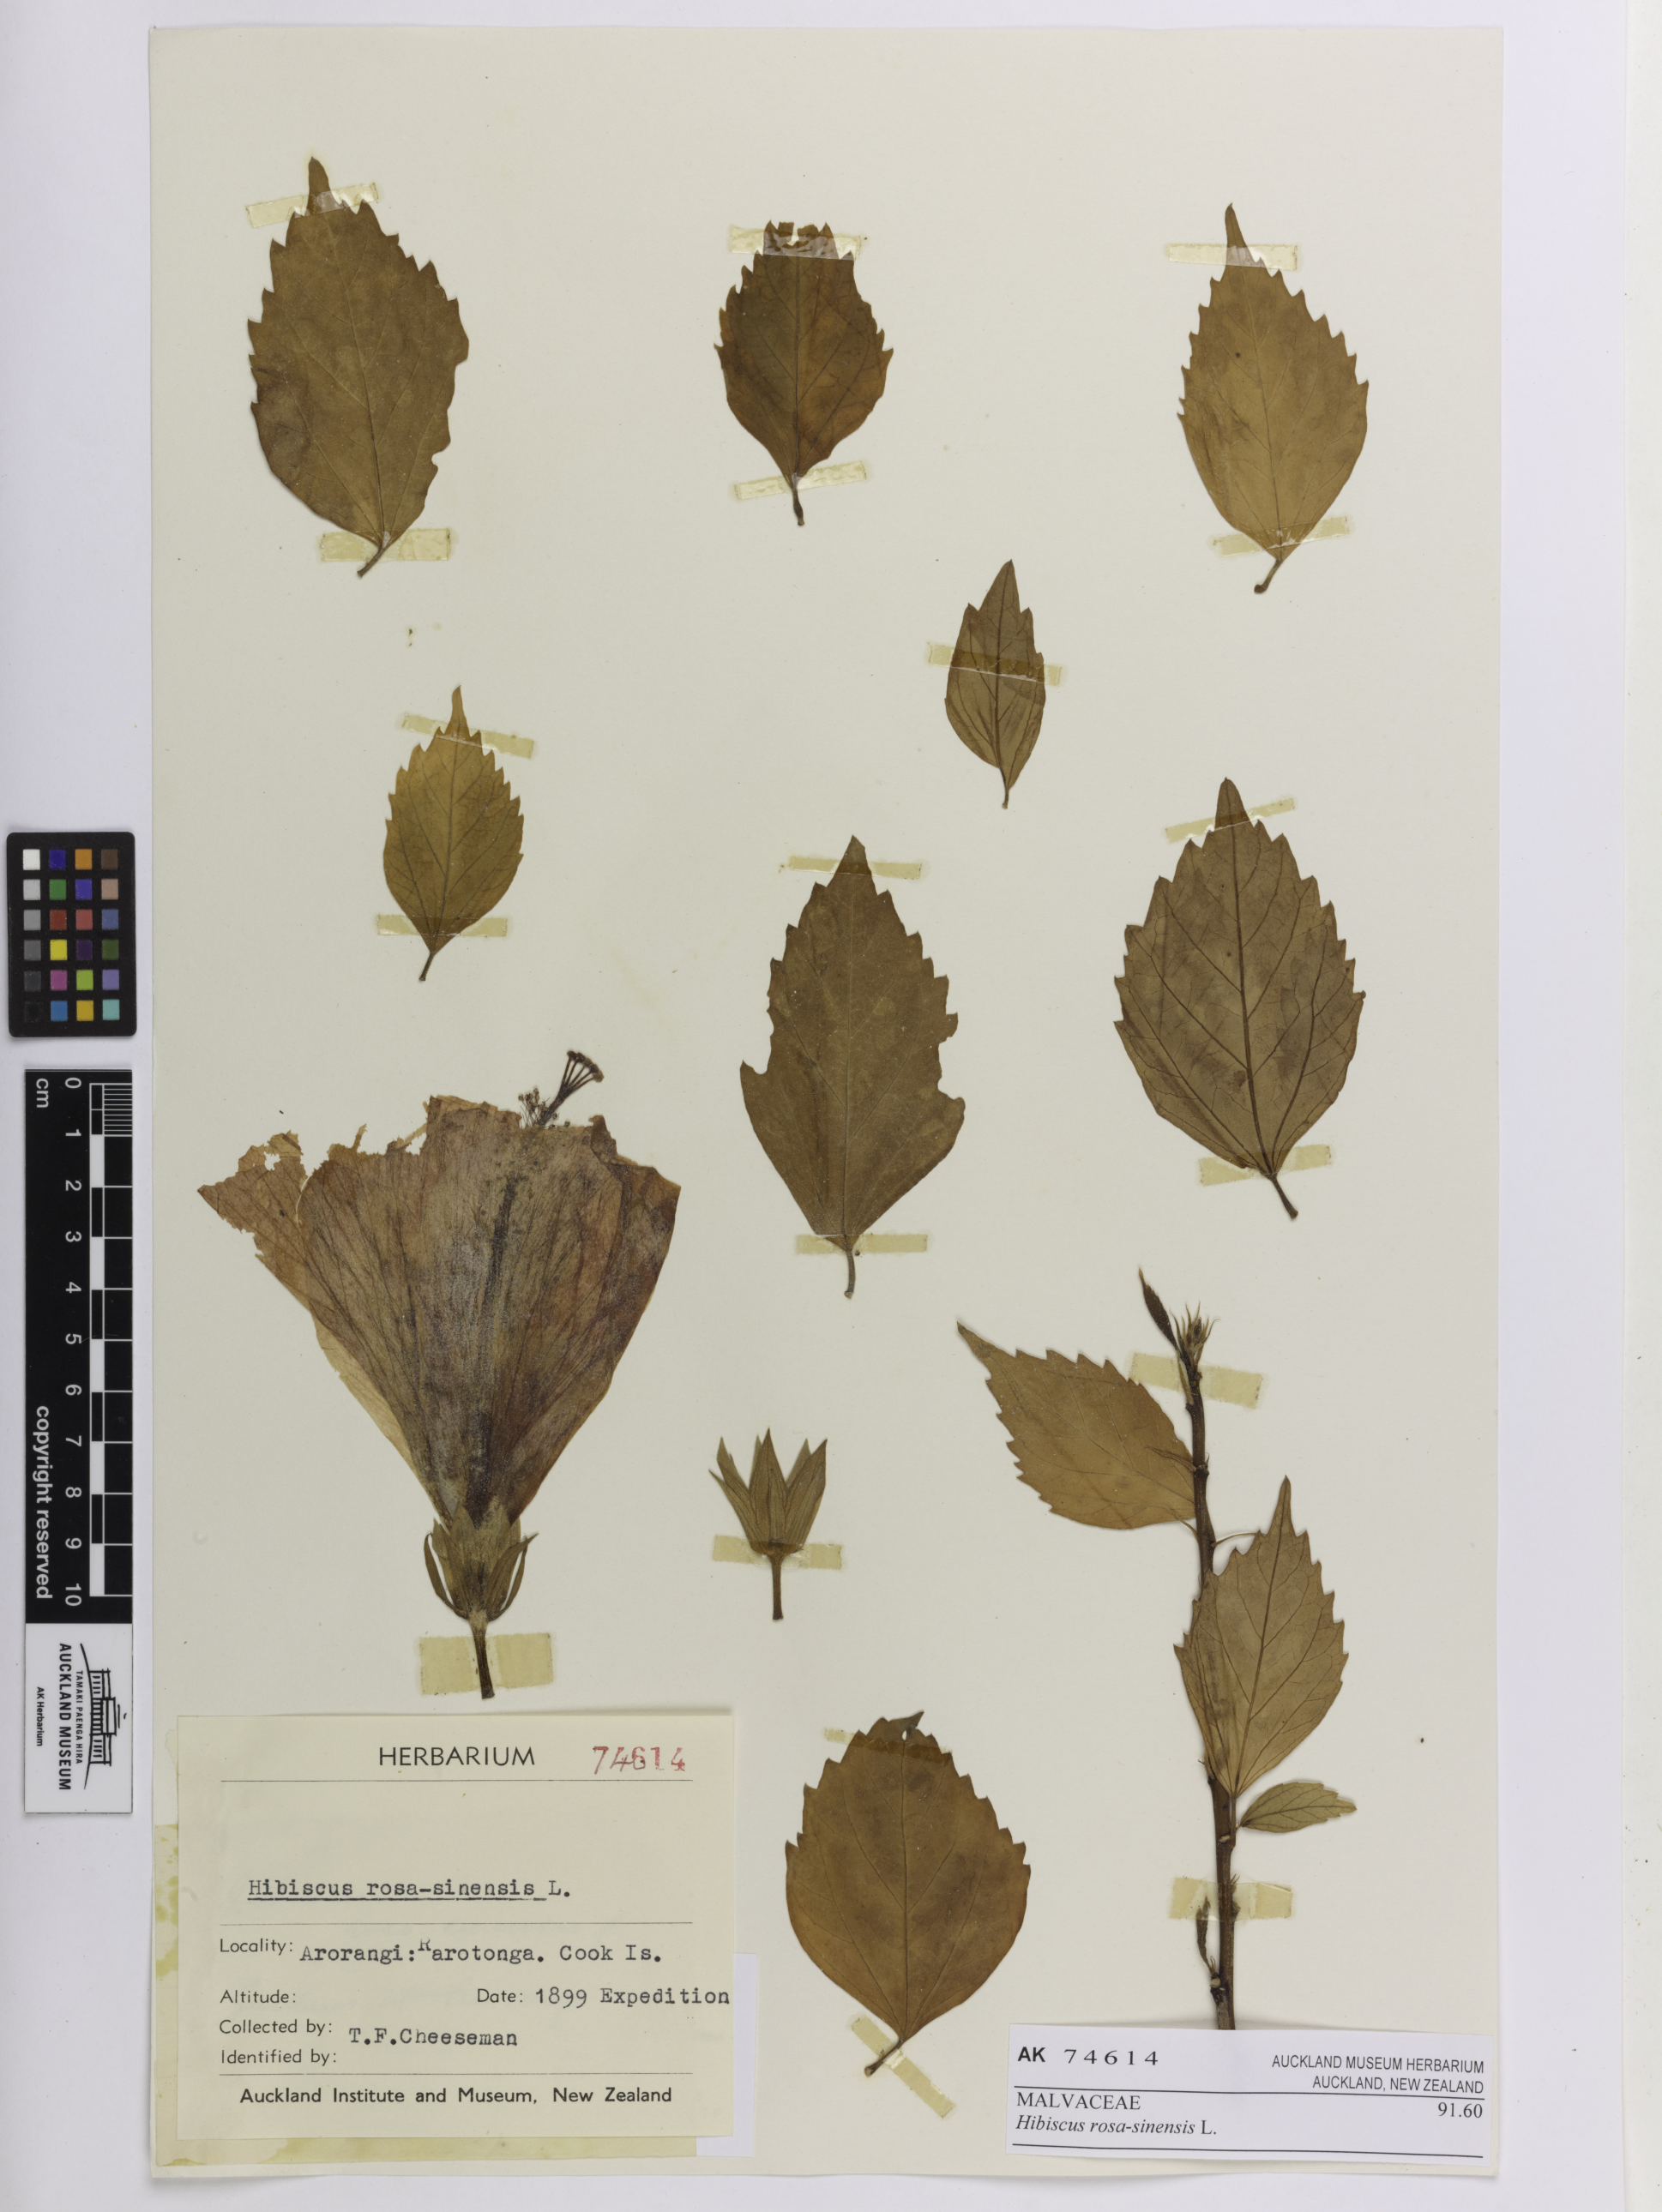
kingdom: Plantae
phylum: Tracheophyta
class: Magnoliopsida
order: Malvales
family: Malvaceae
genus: Hibiscus
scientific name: Hibiscus rosa-sinensis
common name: Hibiscus
